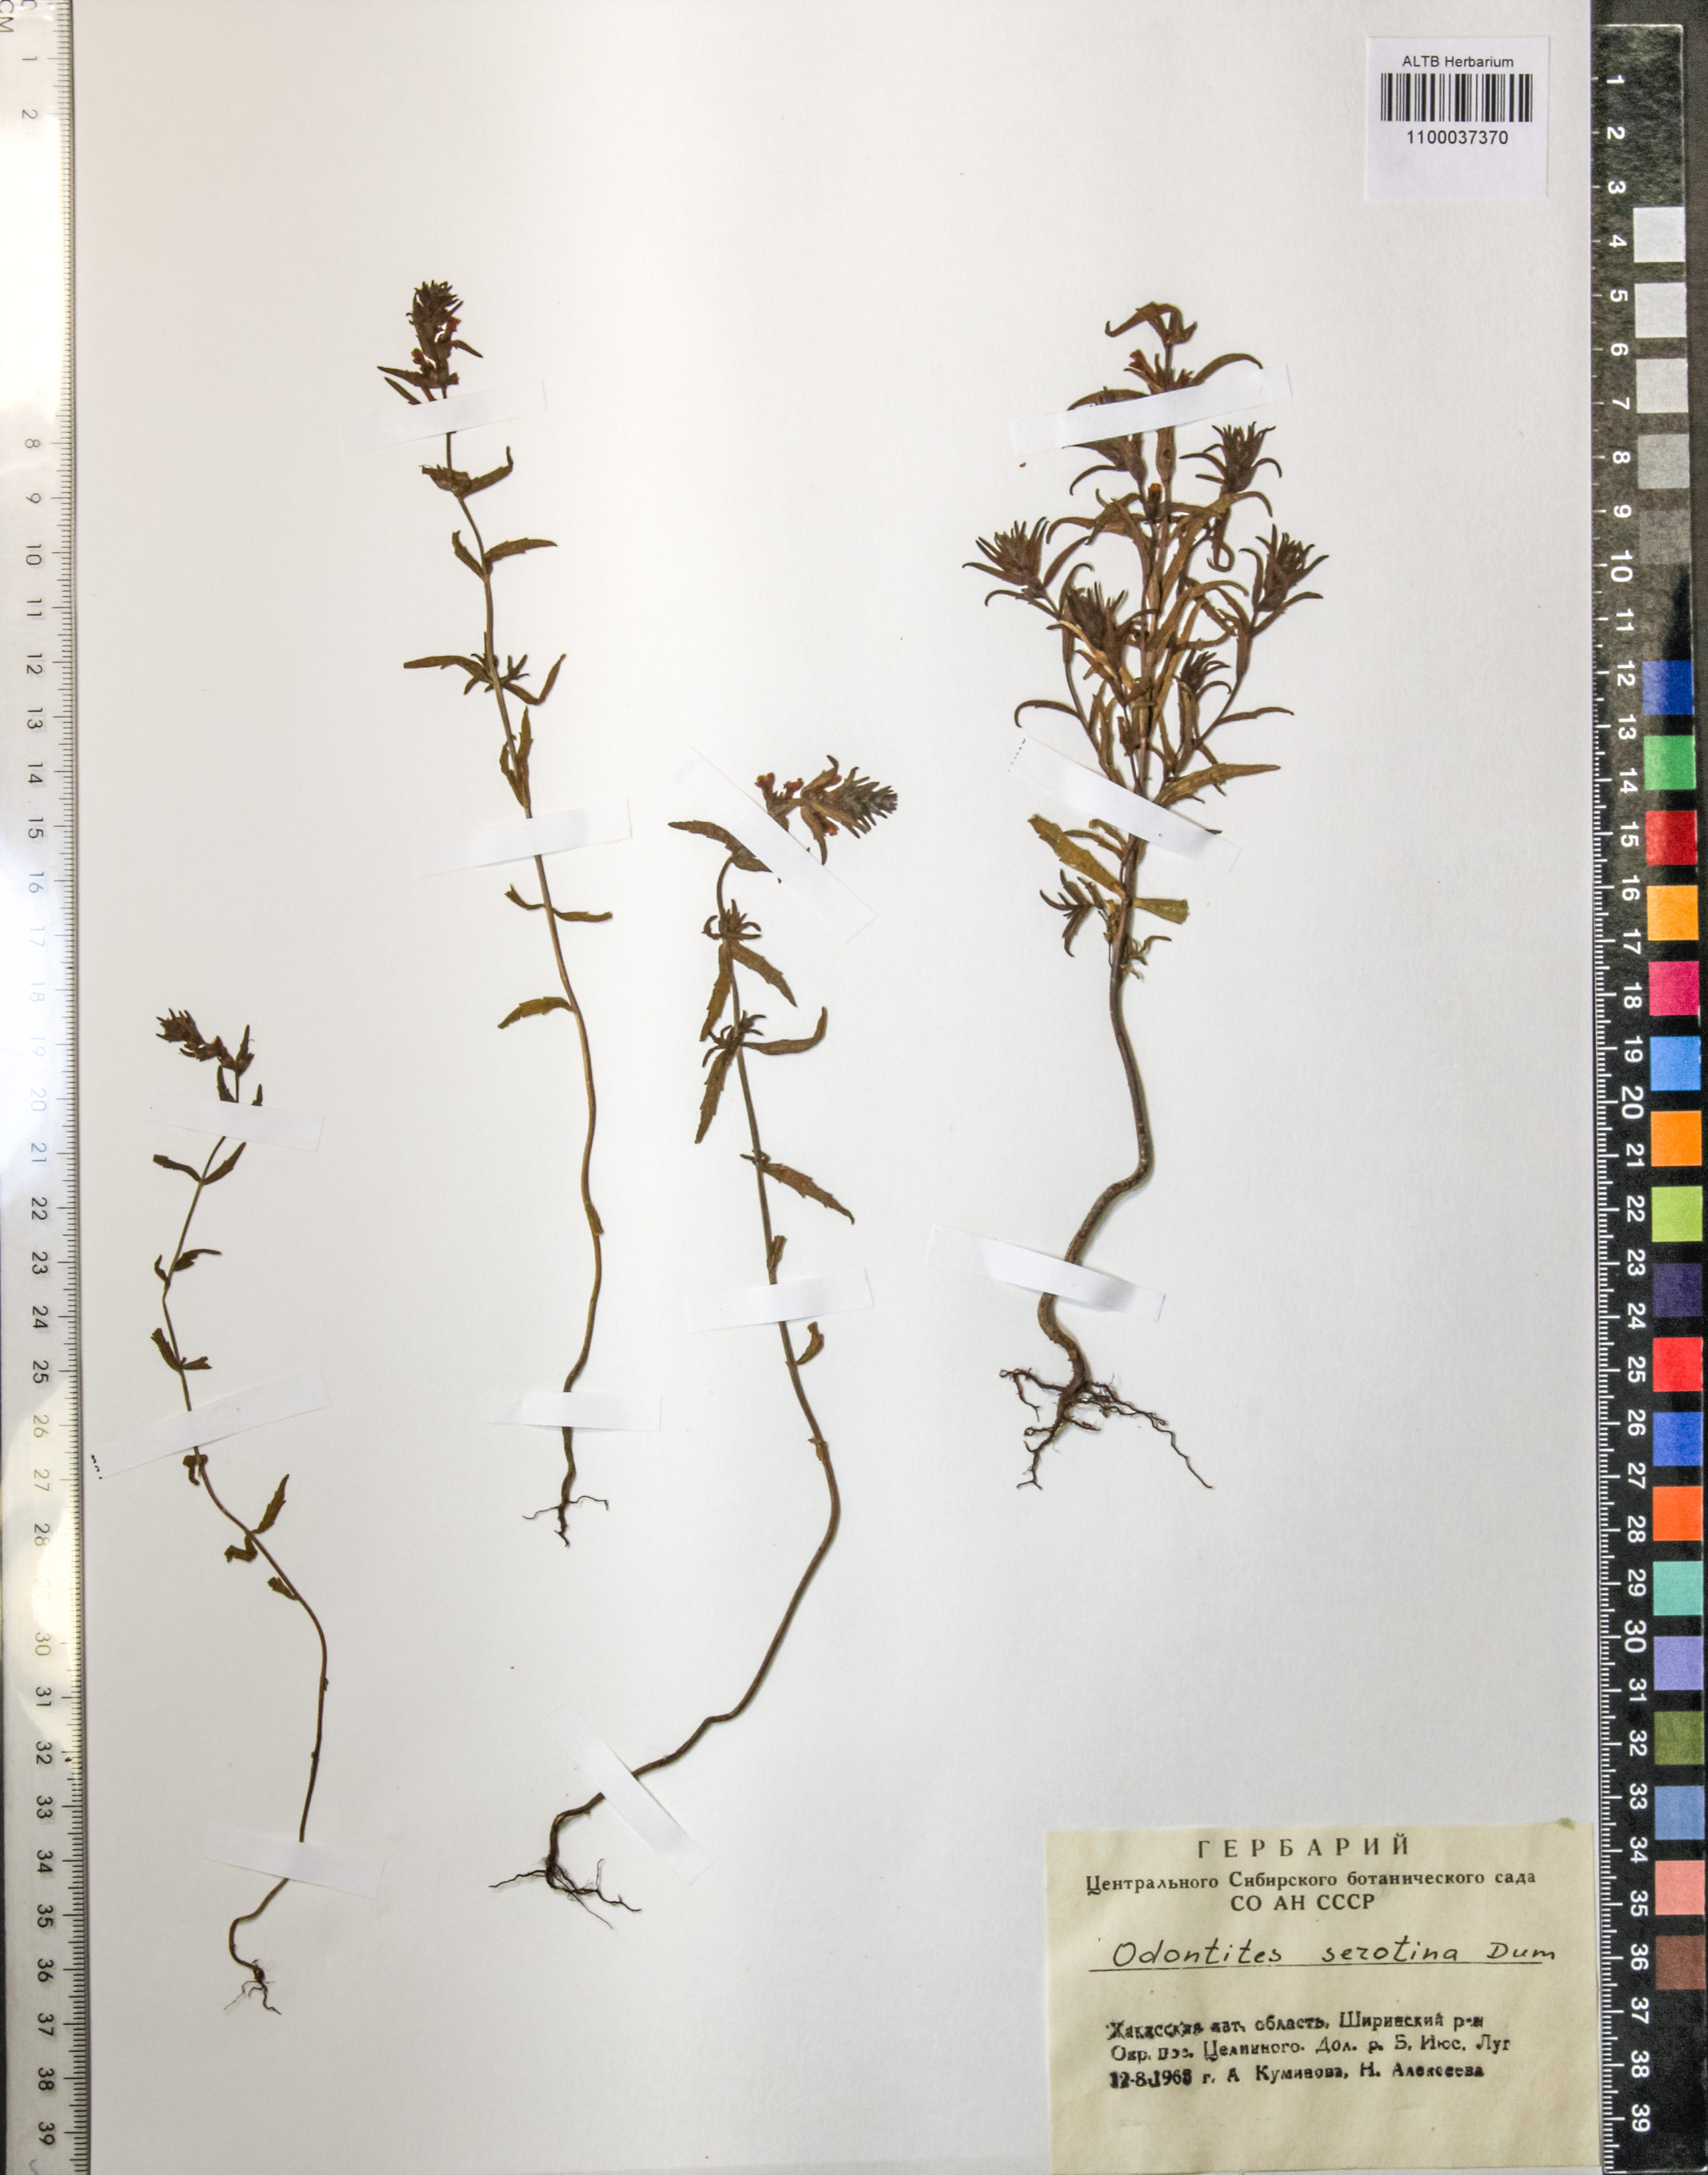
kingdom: Plantae
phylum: Tracheophyta
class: Magnoliopsida
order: Lamiales
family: Orobanchaceae
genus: Odontites
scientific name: Odontites vulgaris
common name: Broomrape
